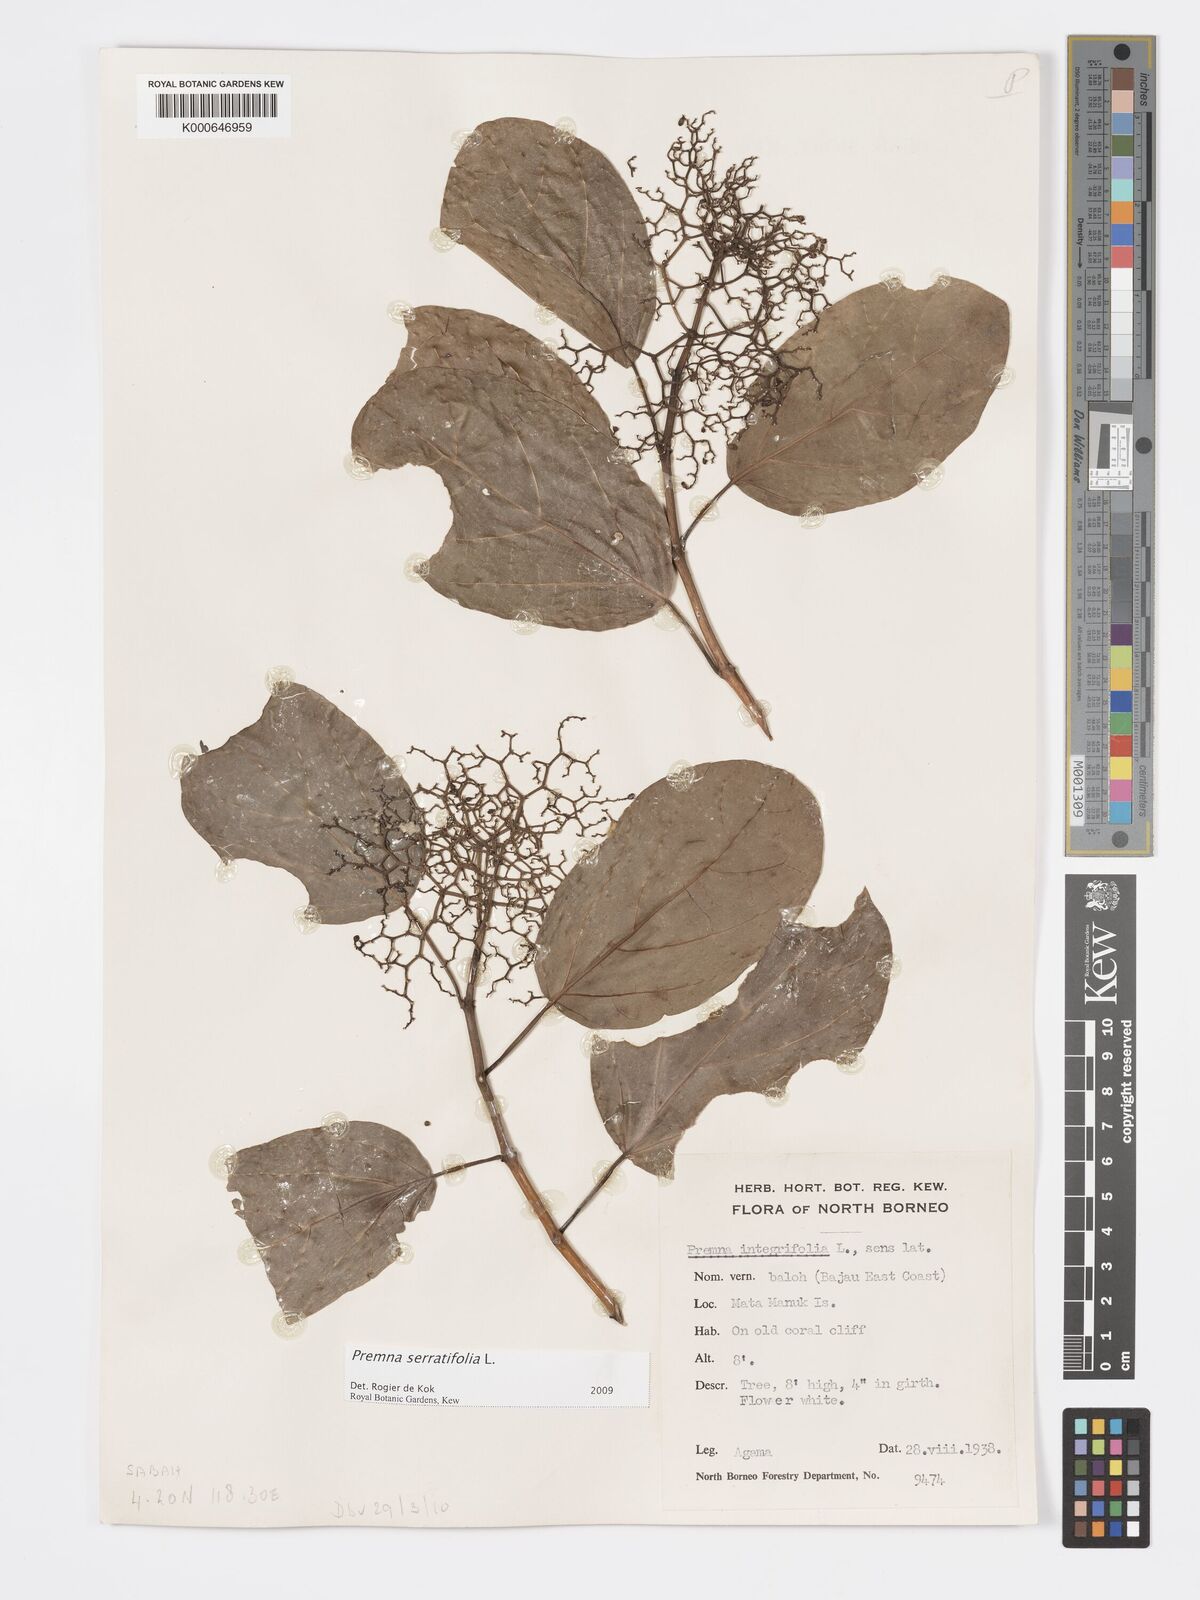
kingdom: Plantae
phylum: Tracheophyta
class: Magnoliopsida
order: Lamiales
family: Lamiaceae
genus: Premna
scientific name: Premna serratifolia
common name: Bastard guelder
